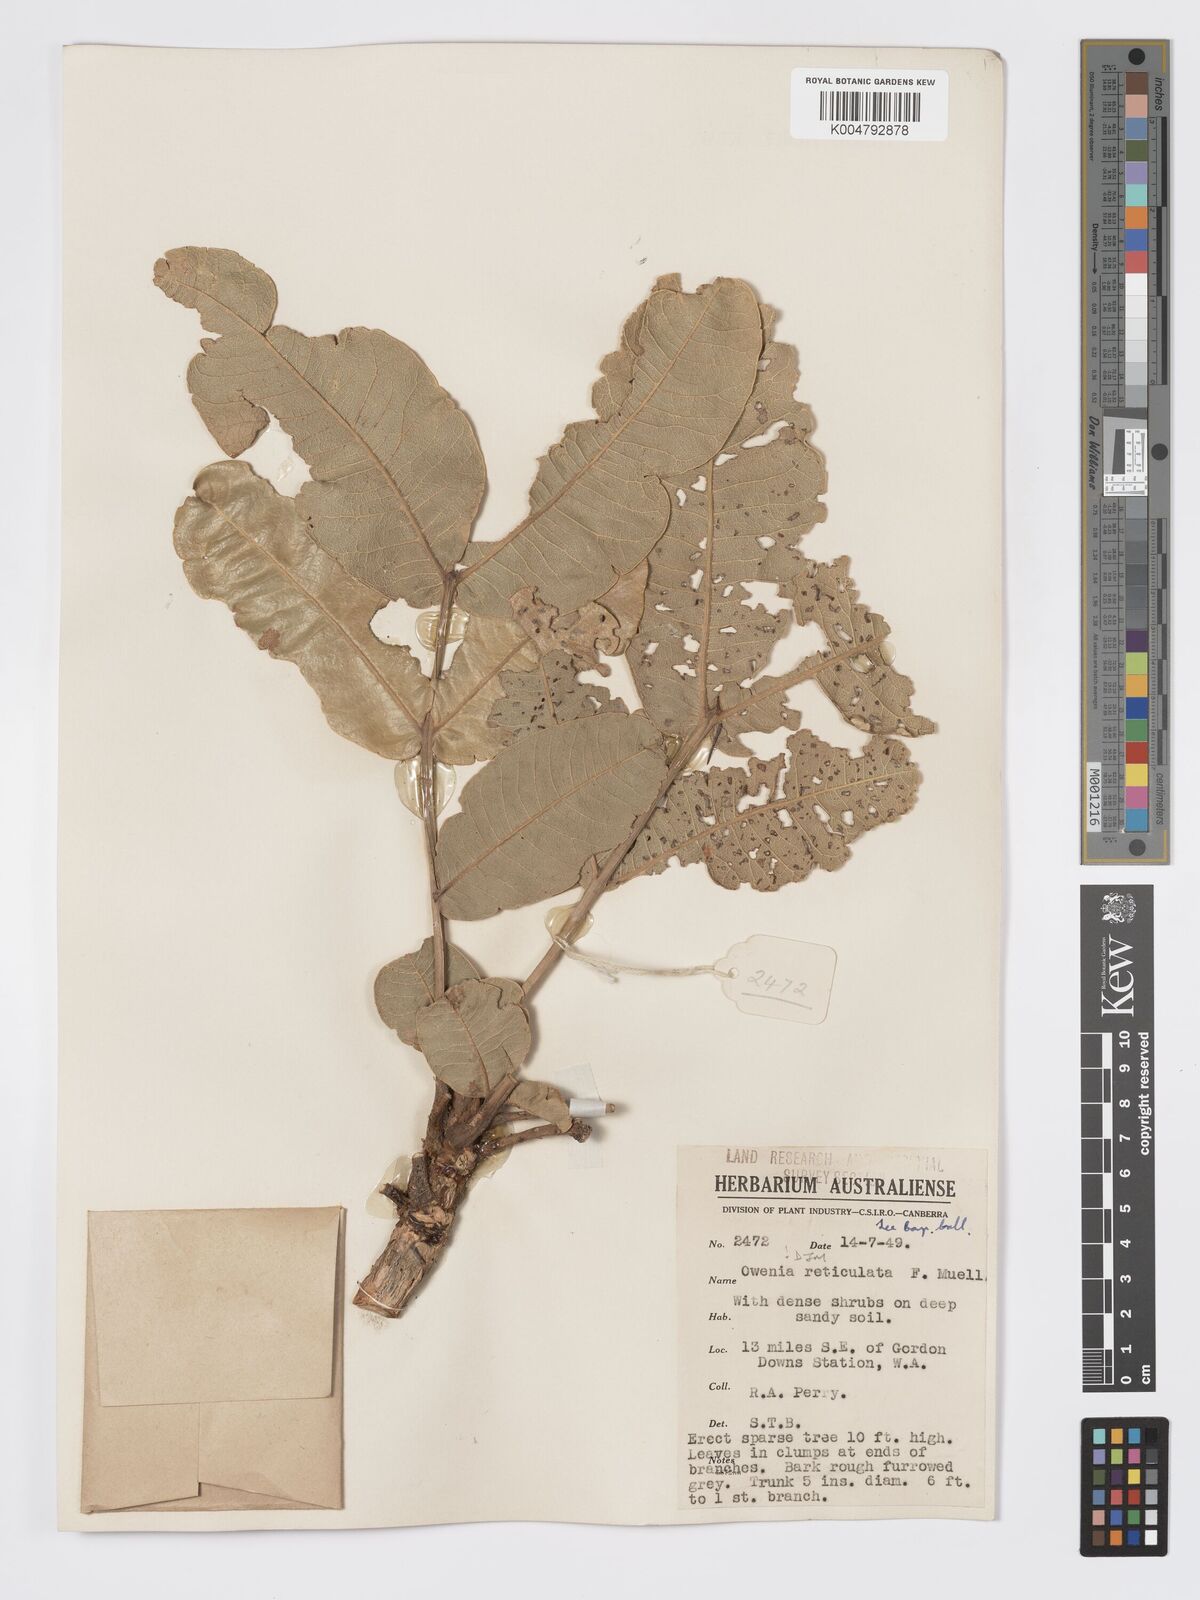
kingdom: Plantae
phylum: Tracheophyta
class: Magnoliopsida
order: Sapindales
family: Meliaceae
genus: Owenia
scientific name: Owenia reticulata
